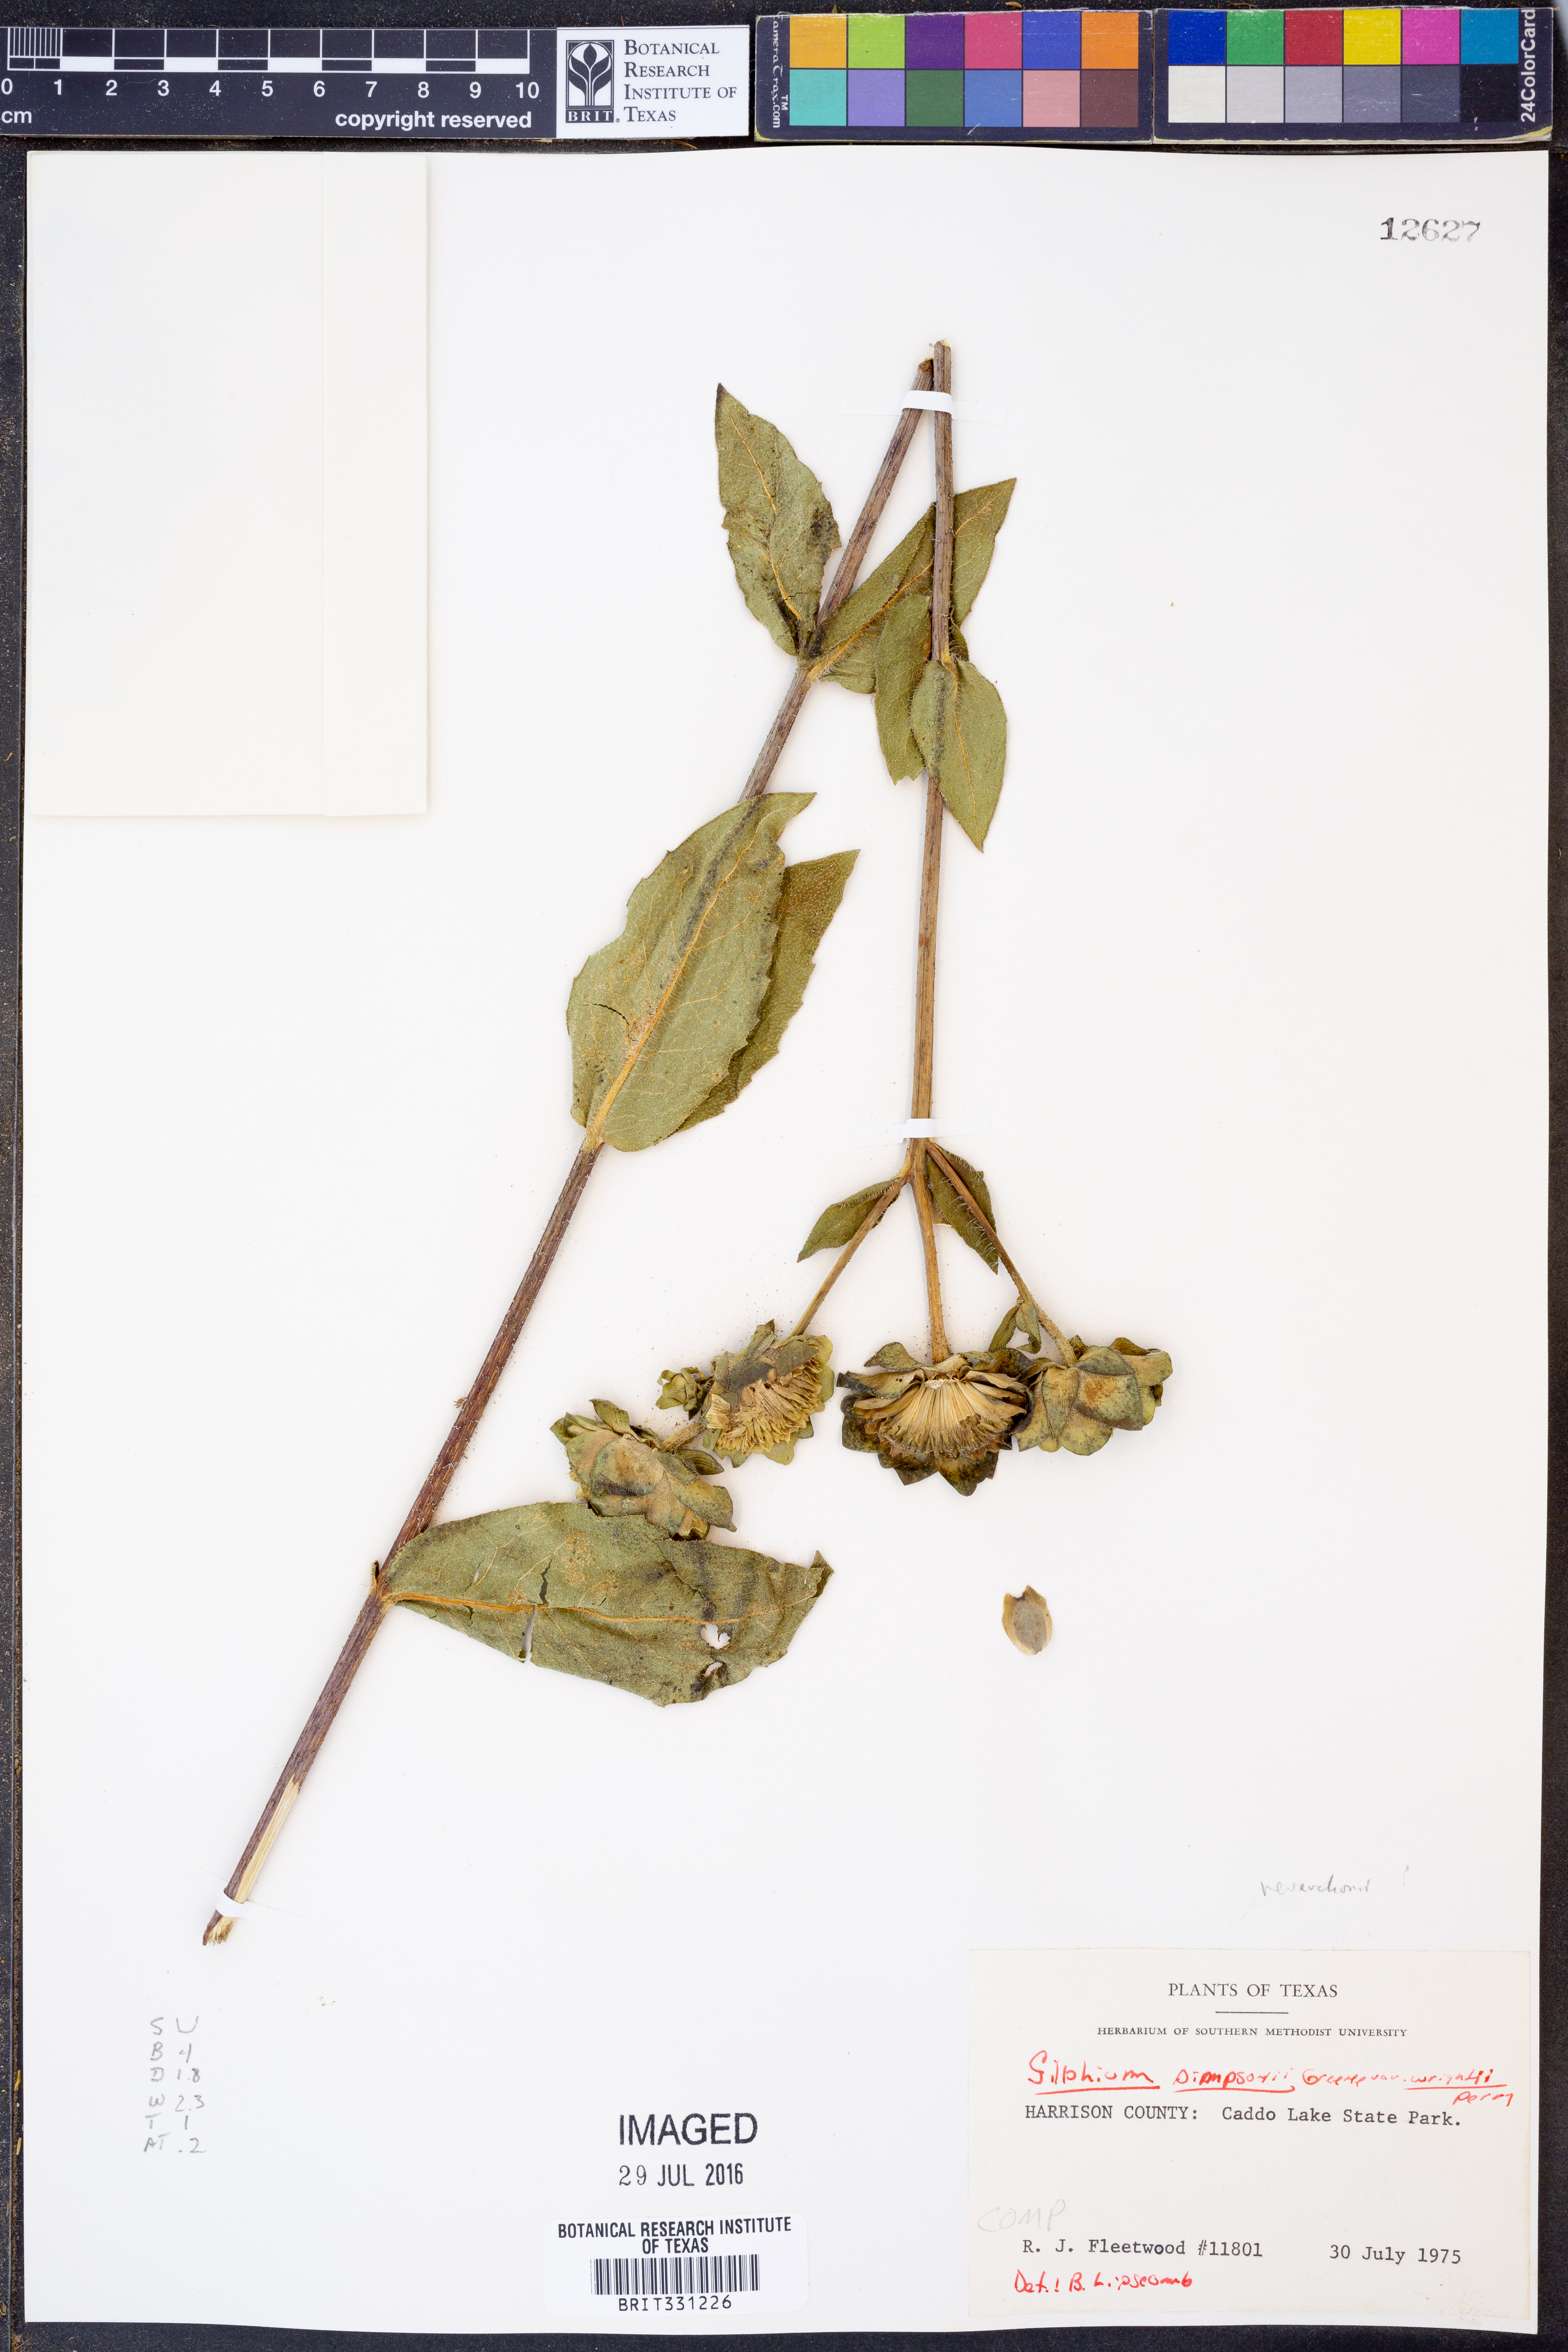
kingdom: Plantae
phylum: Tracheophyta
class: Magnoliopsida
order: Asterales
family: Asteraceae
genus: Silphium
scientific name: Silphium radula
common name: Roughleaf rosinweed
